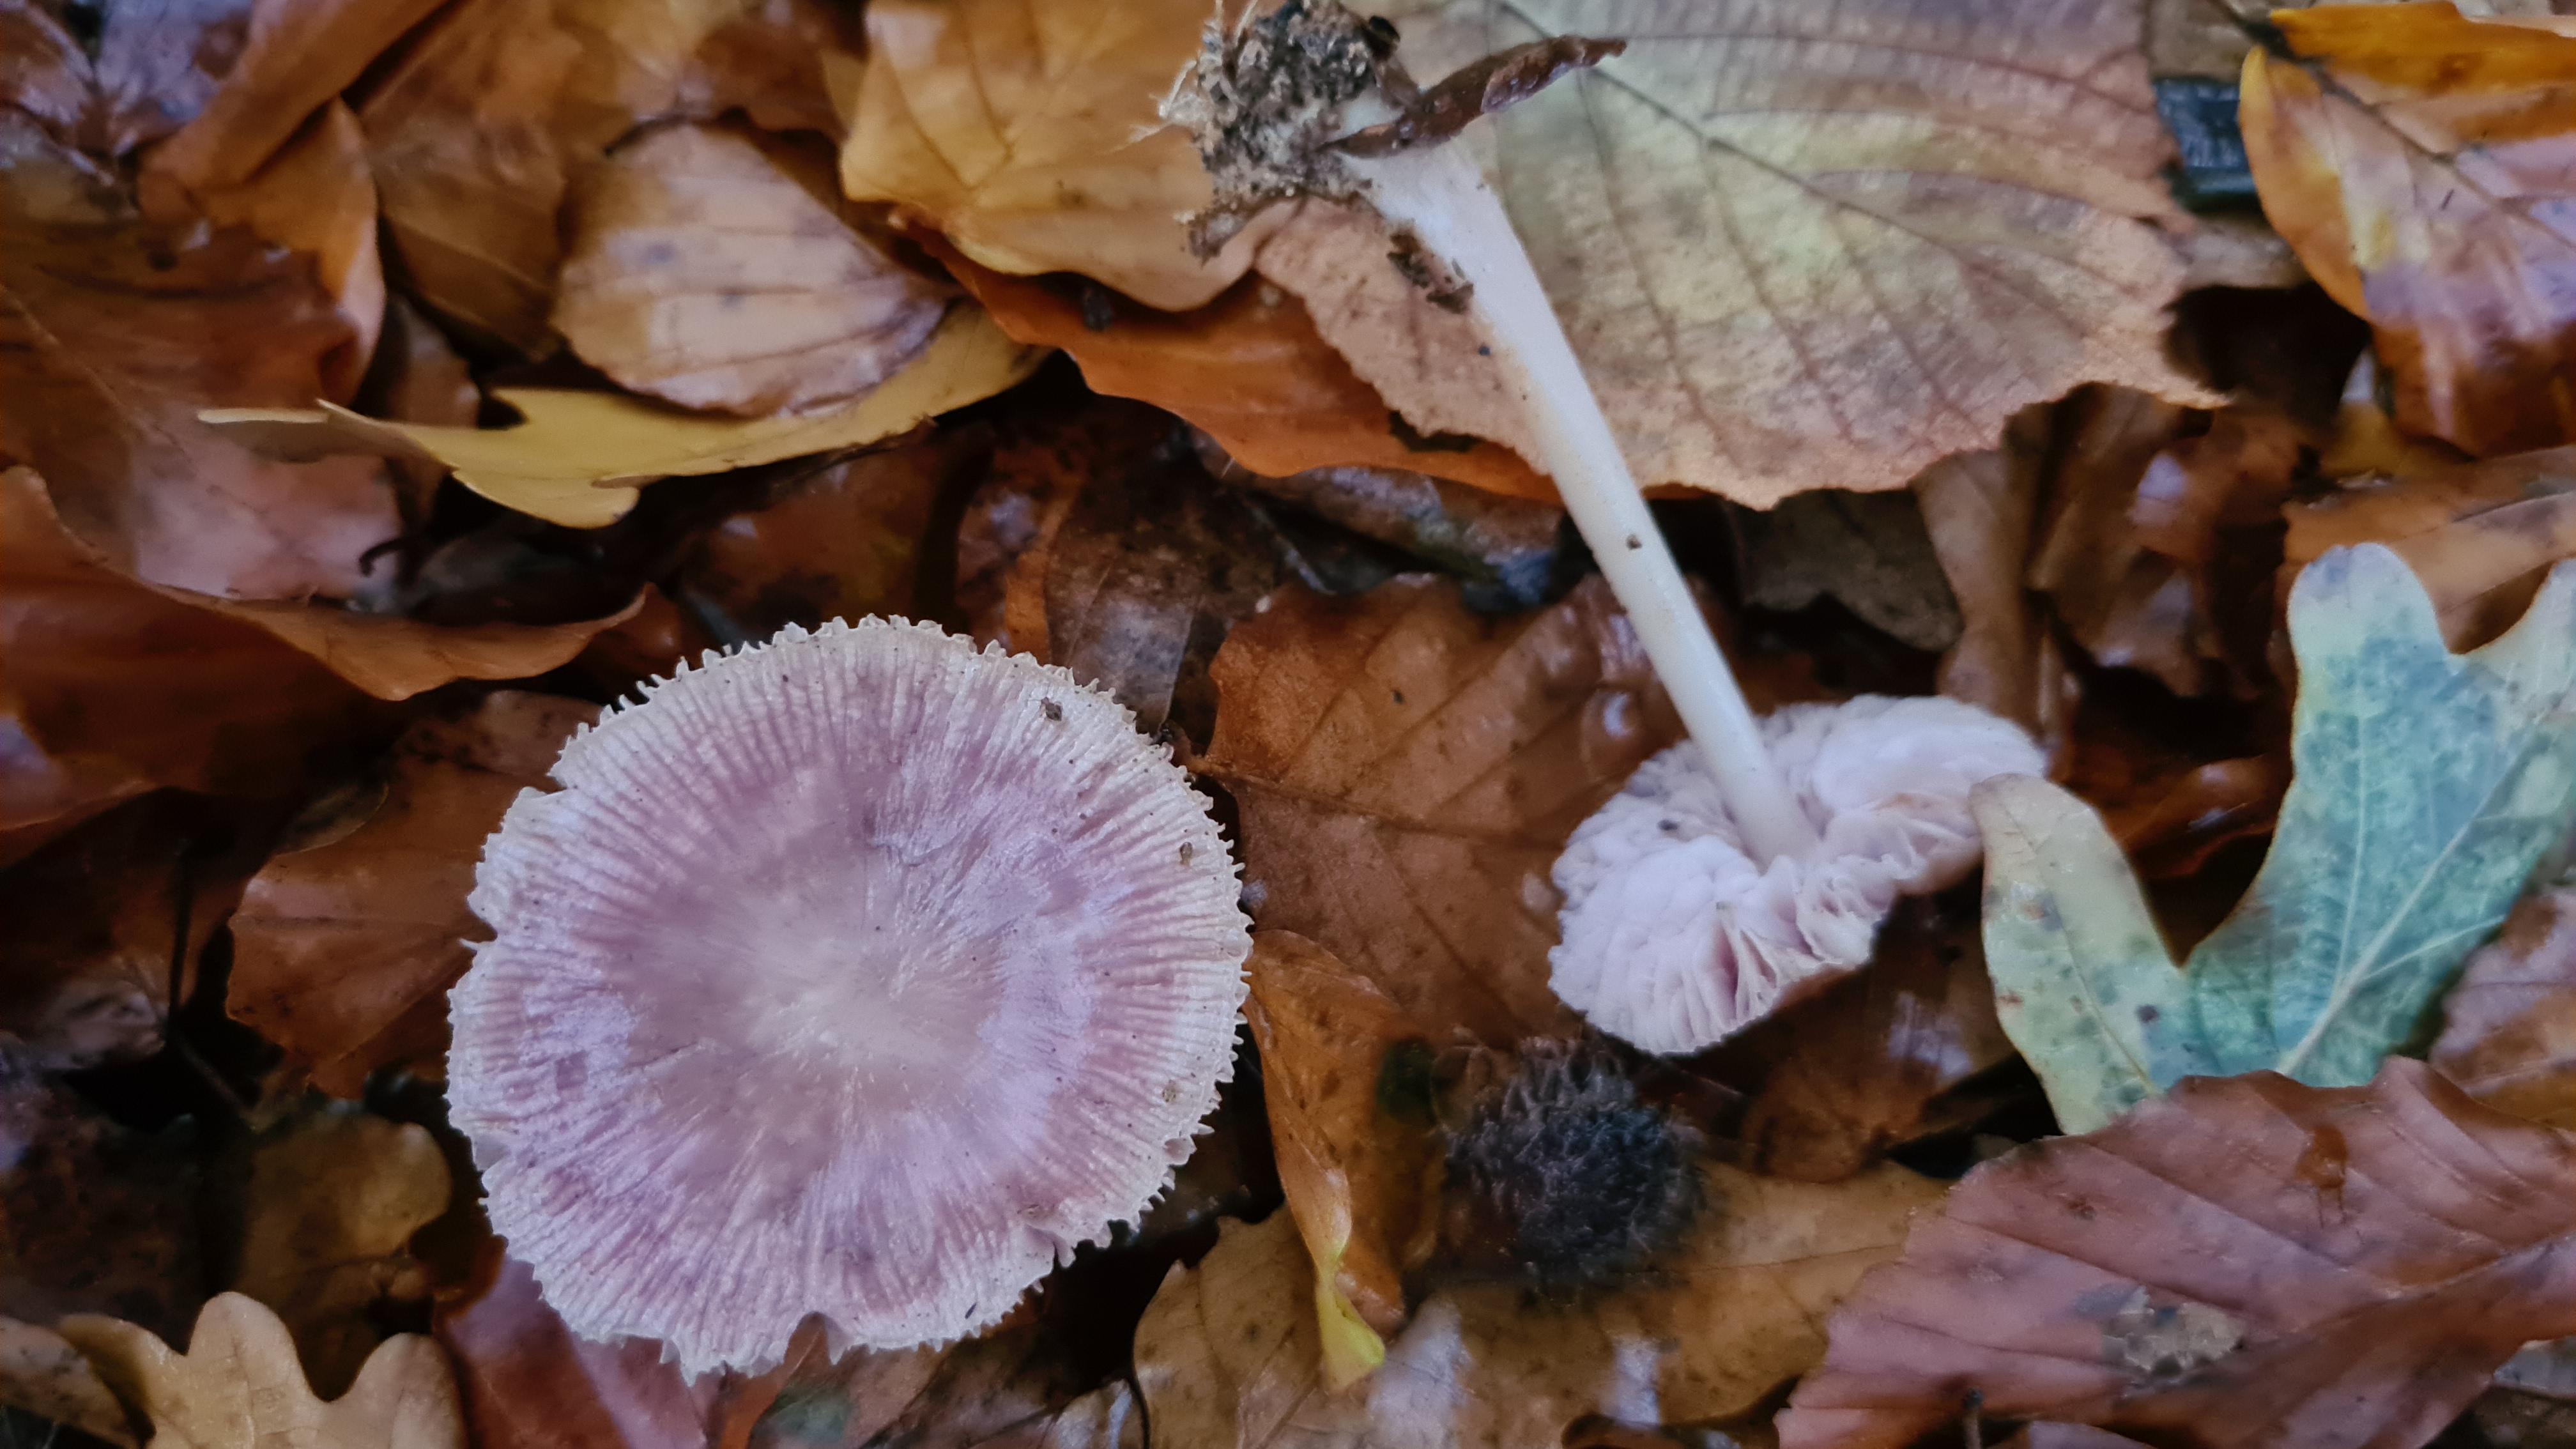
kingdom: Fungi
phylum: Basidiomycota
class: Agaricomycetes
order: Agaricales
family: Mycenaceae
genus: Mycena
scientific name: Mycena rosea
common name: rosa huesvamp
